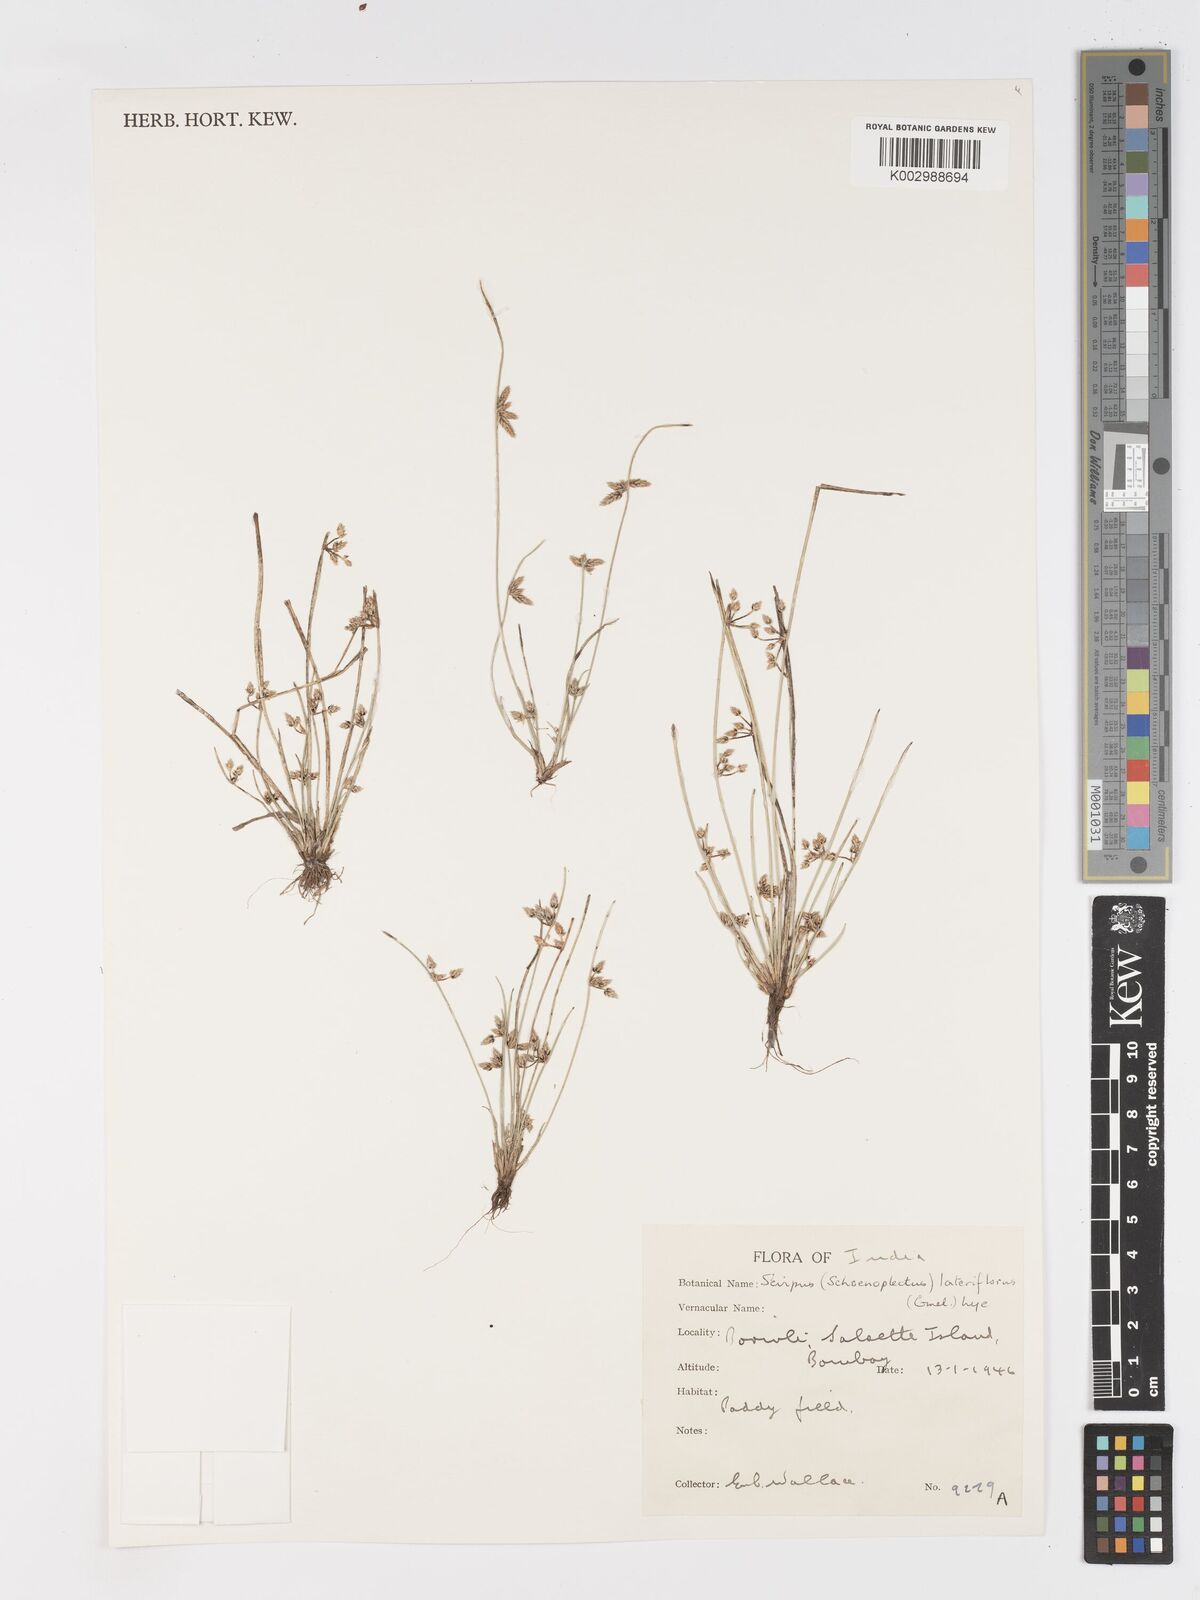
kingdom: Plantae
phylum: Tracheophyta
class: Liliopsida
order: Poales
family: Cyperaceae
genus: Schoenoplectiella
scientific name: Schoenoplectiella lateriflora
